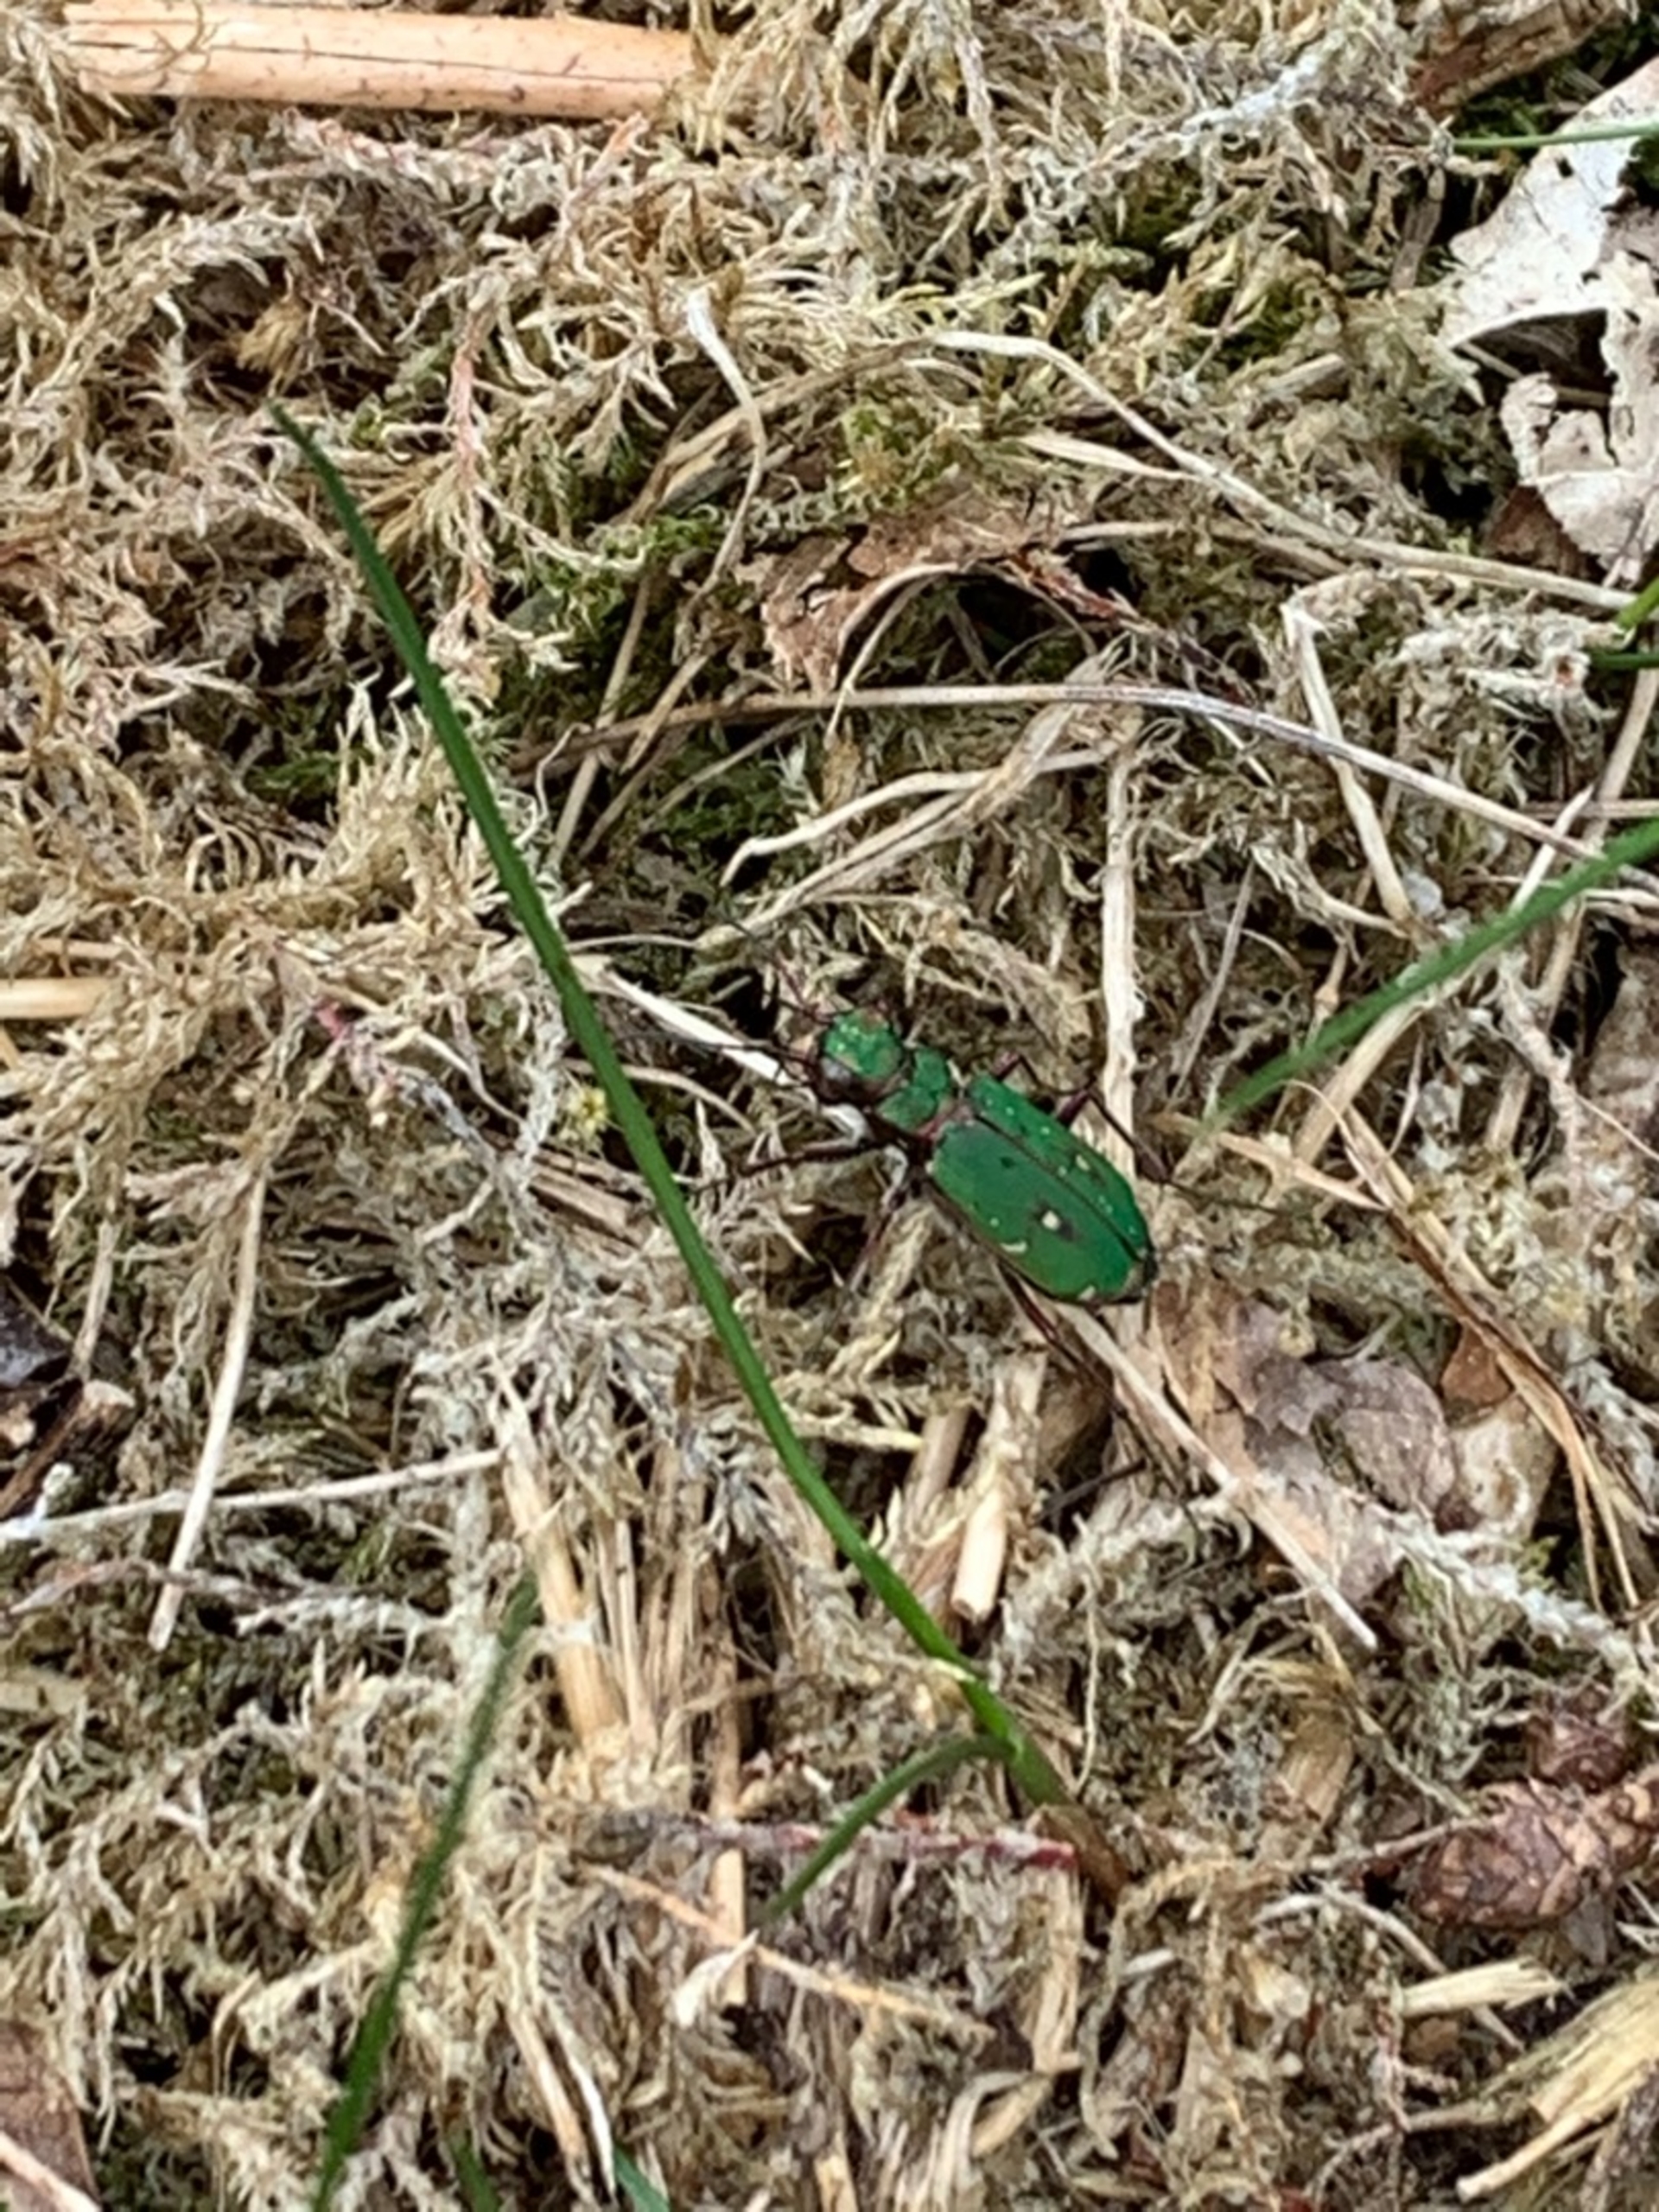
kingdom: Animalia
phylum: Arthropoda
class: Insecta
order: Coleoptera
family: Carabidae
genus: Cicindela
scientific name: Cicindela campestris
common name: Grøn sandspringer
